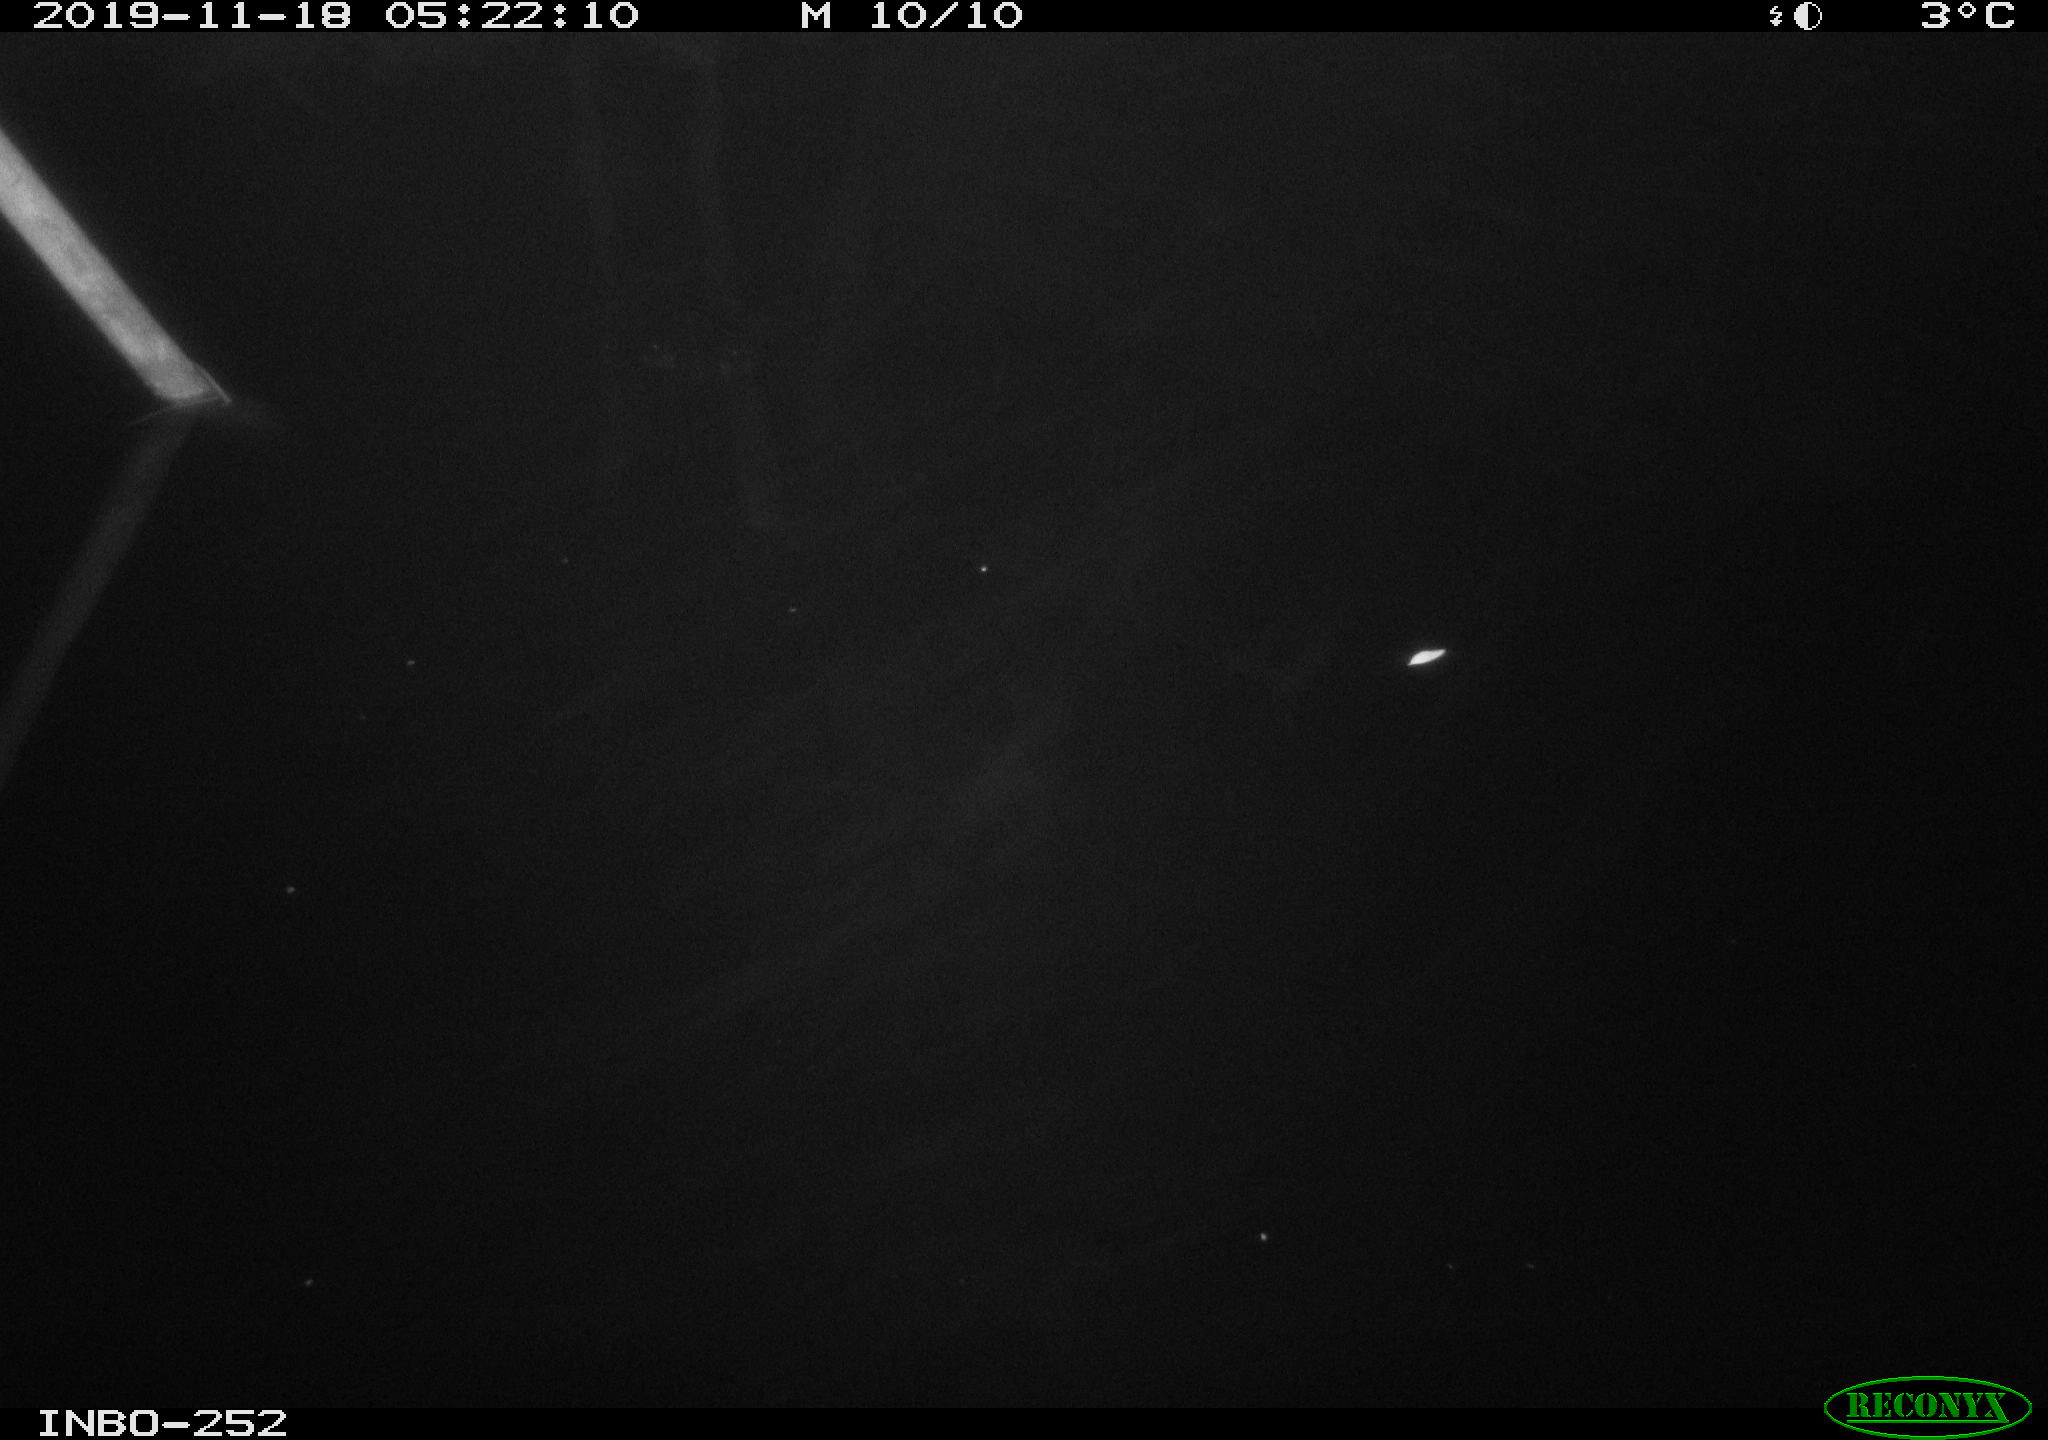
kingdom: Animalia
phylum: Chordata
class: Aves
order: Anseriformes
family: Anatidae
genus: Anas
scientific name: Anas platyrhynchos
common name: Mallard
